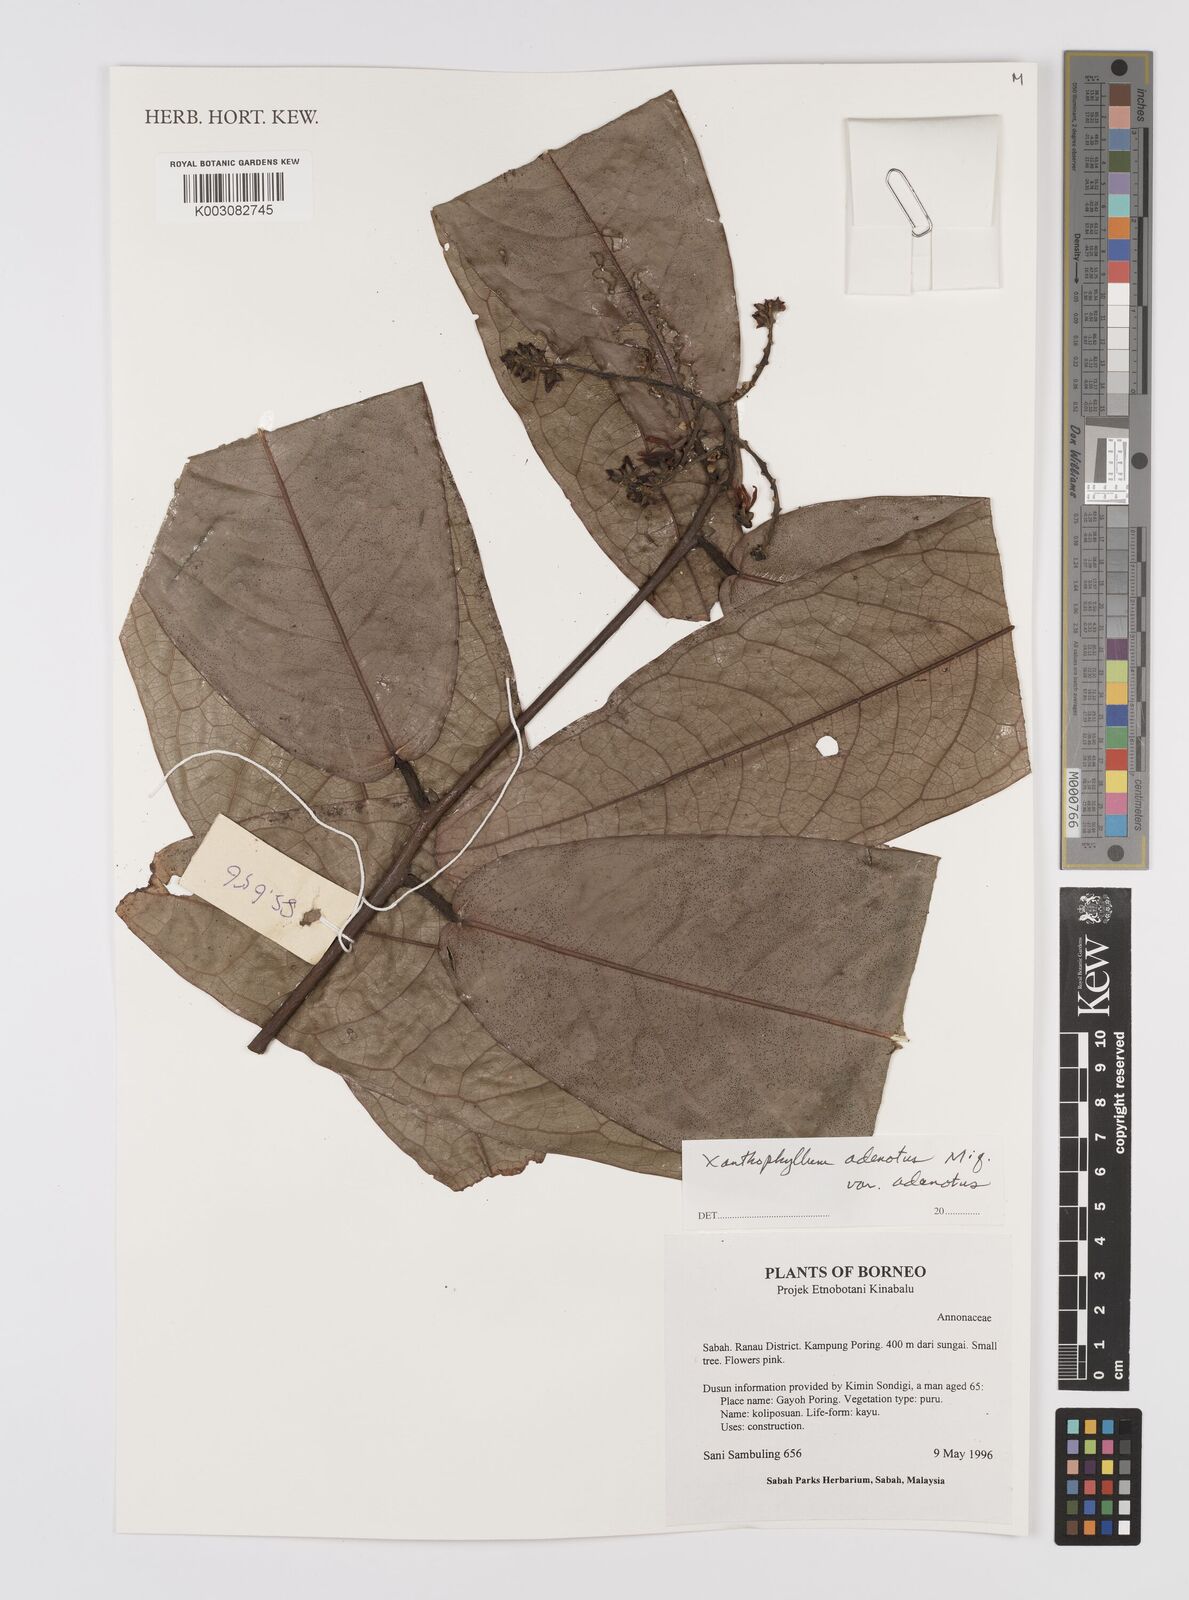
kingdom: Plantae
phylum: Tracheophyta
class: Magnoliopsida
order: Fabales
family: Polygalaceae
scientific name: Polygalaceae
